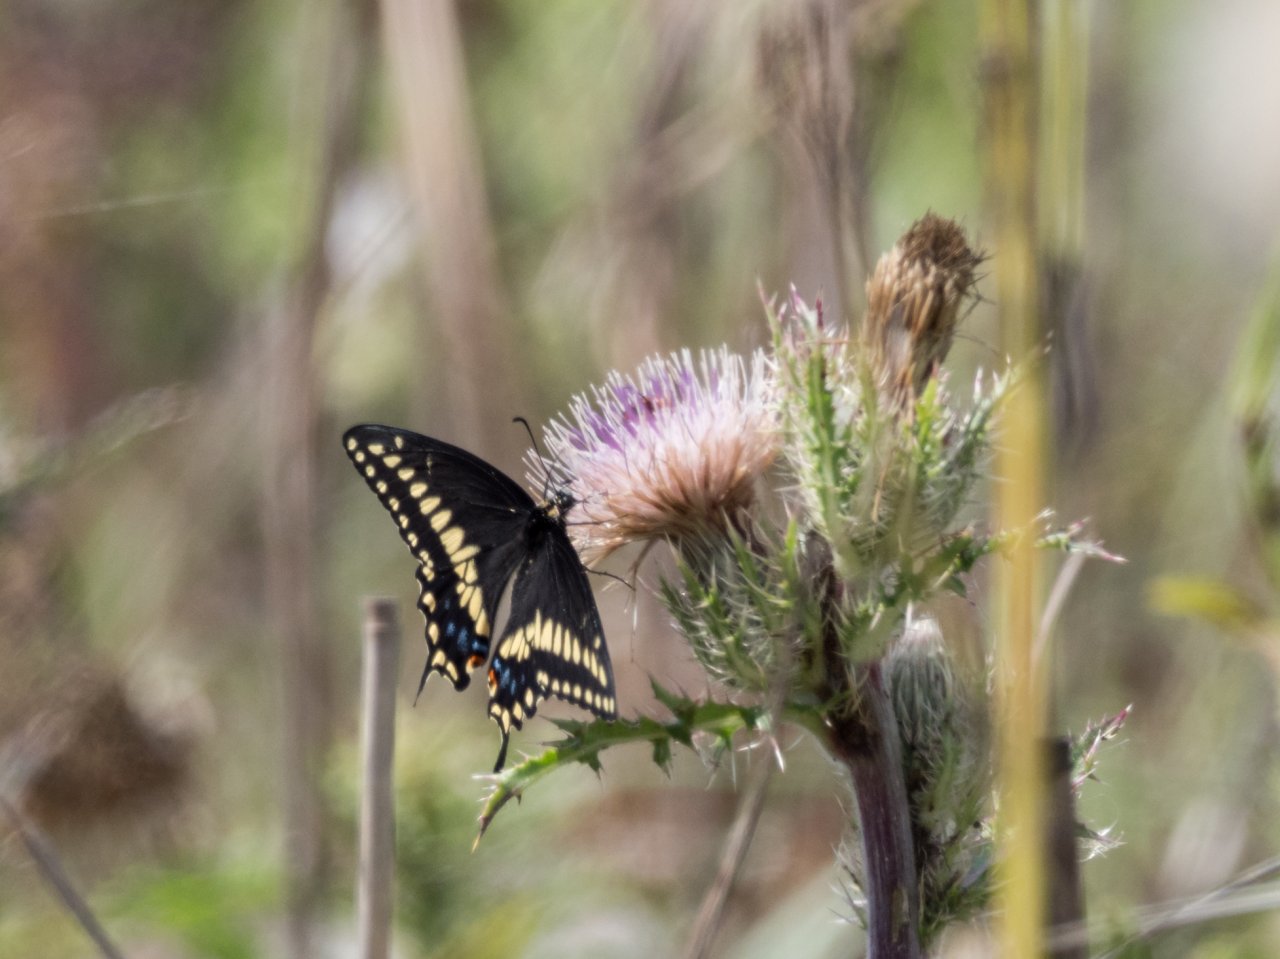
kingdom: Animalia
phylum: Arthropoda
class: Insecta
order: Lepidoptera
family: Papilionidae
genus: Papilio
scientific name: Papilio polyxenes
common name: Black Swallowtail
